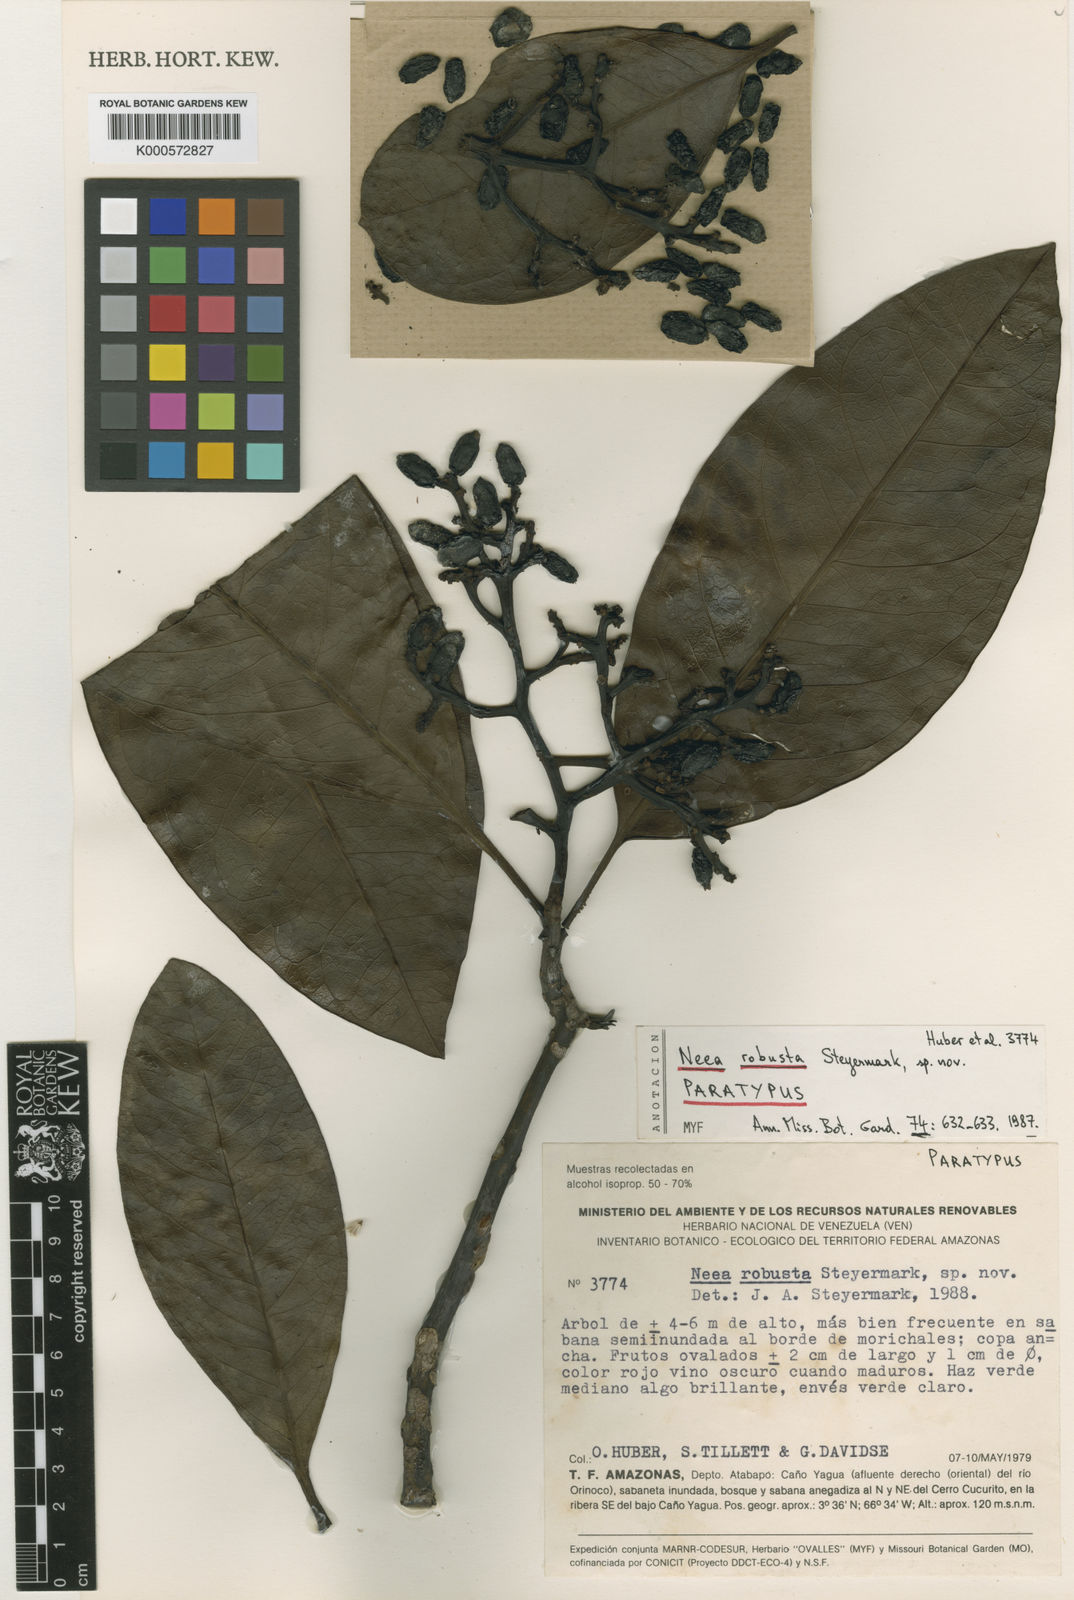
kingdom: Plantae
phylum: Tracheophyta
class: Magnoliopsida
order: Caryophyllales
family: Nyctaginaceae
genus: Neea
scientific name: Neea robusta
